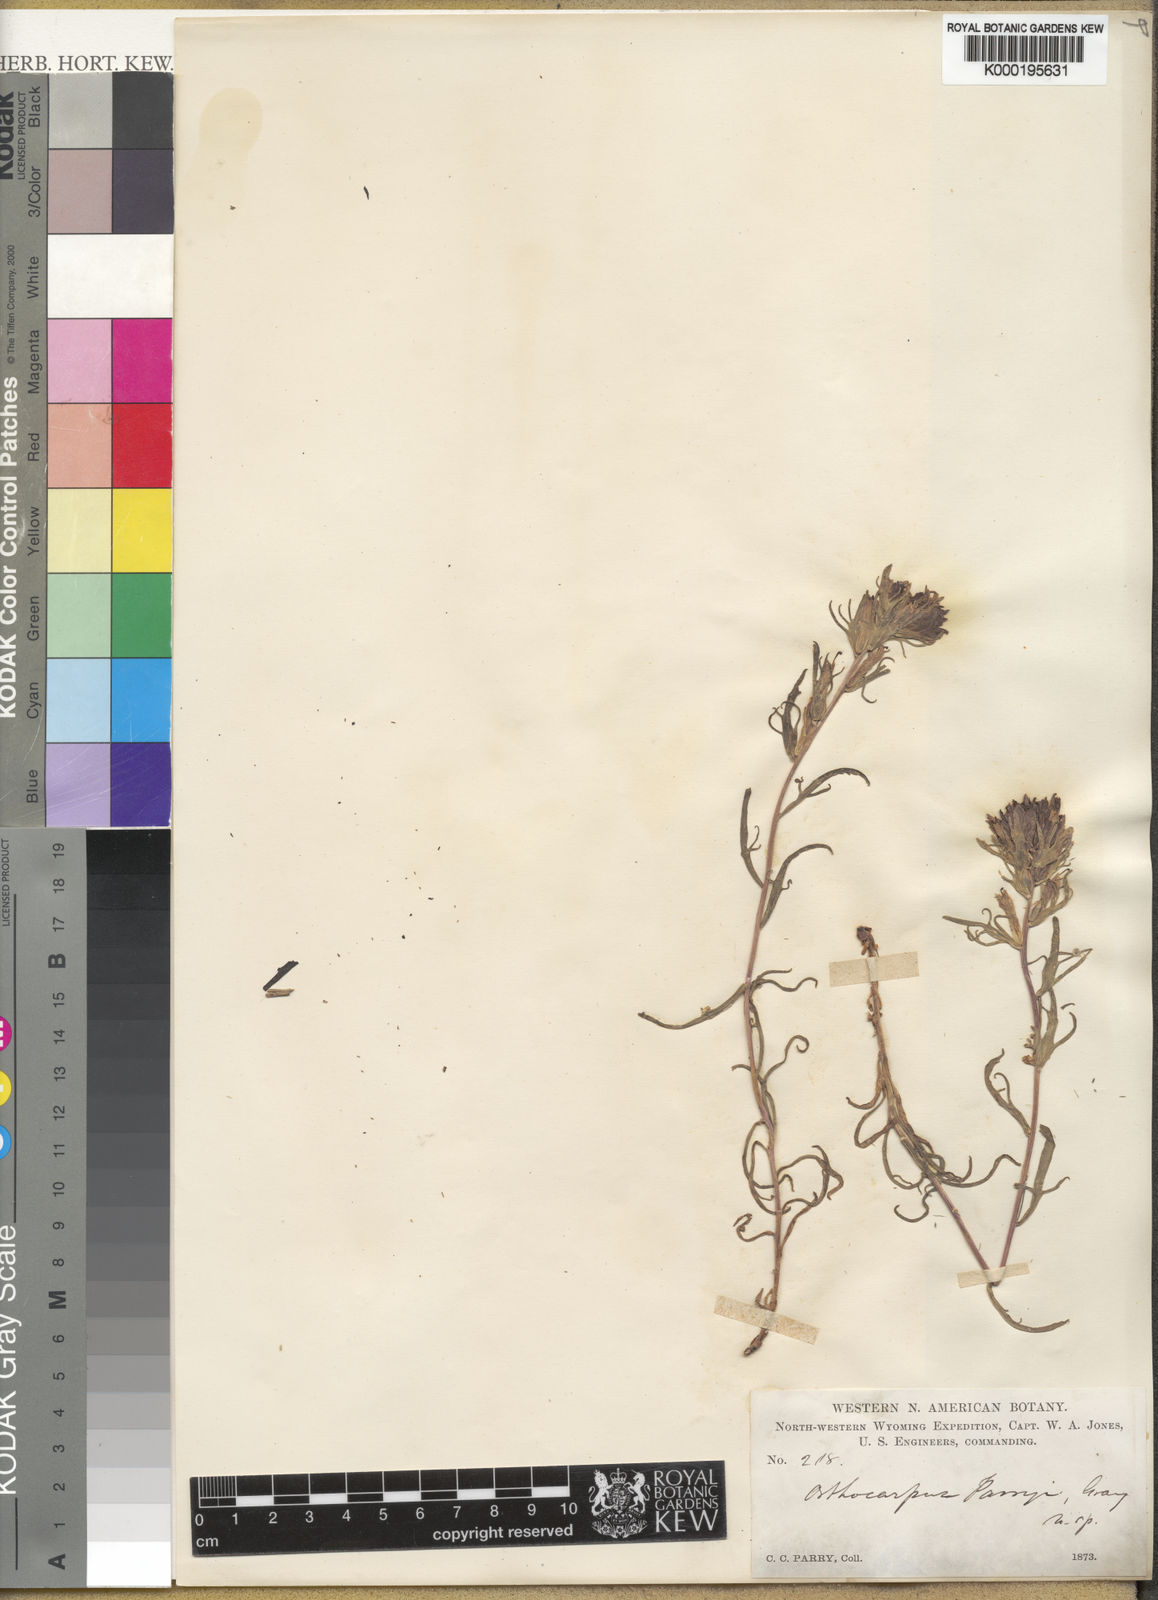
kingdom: Plantae
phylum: Tracheophyta
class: Magnoliopsida
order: Lamiales
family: Orobanchaceae
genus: Castilleja
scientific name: Castilleja pallescens
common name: Pale paintbrush
